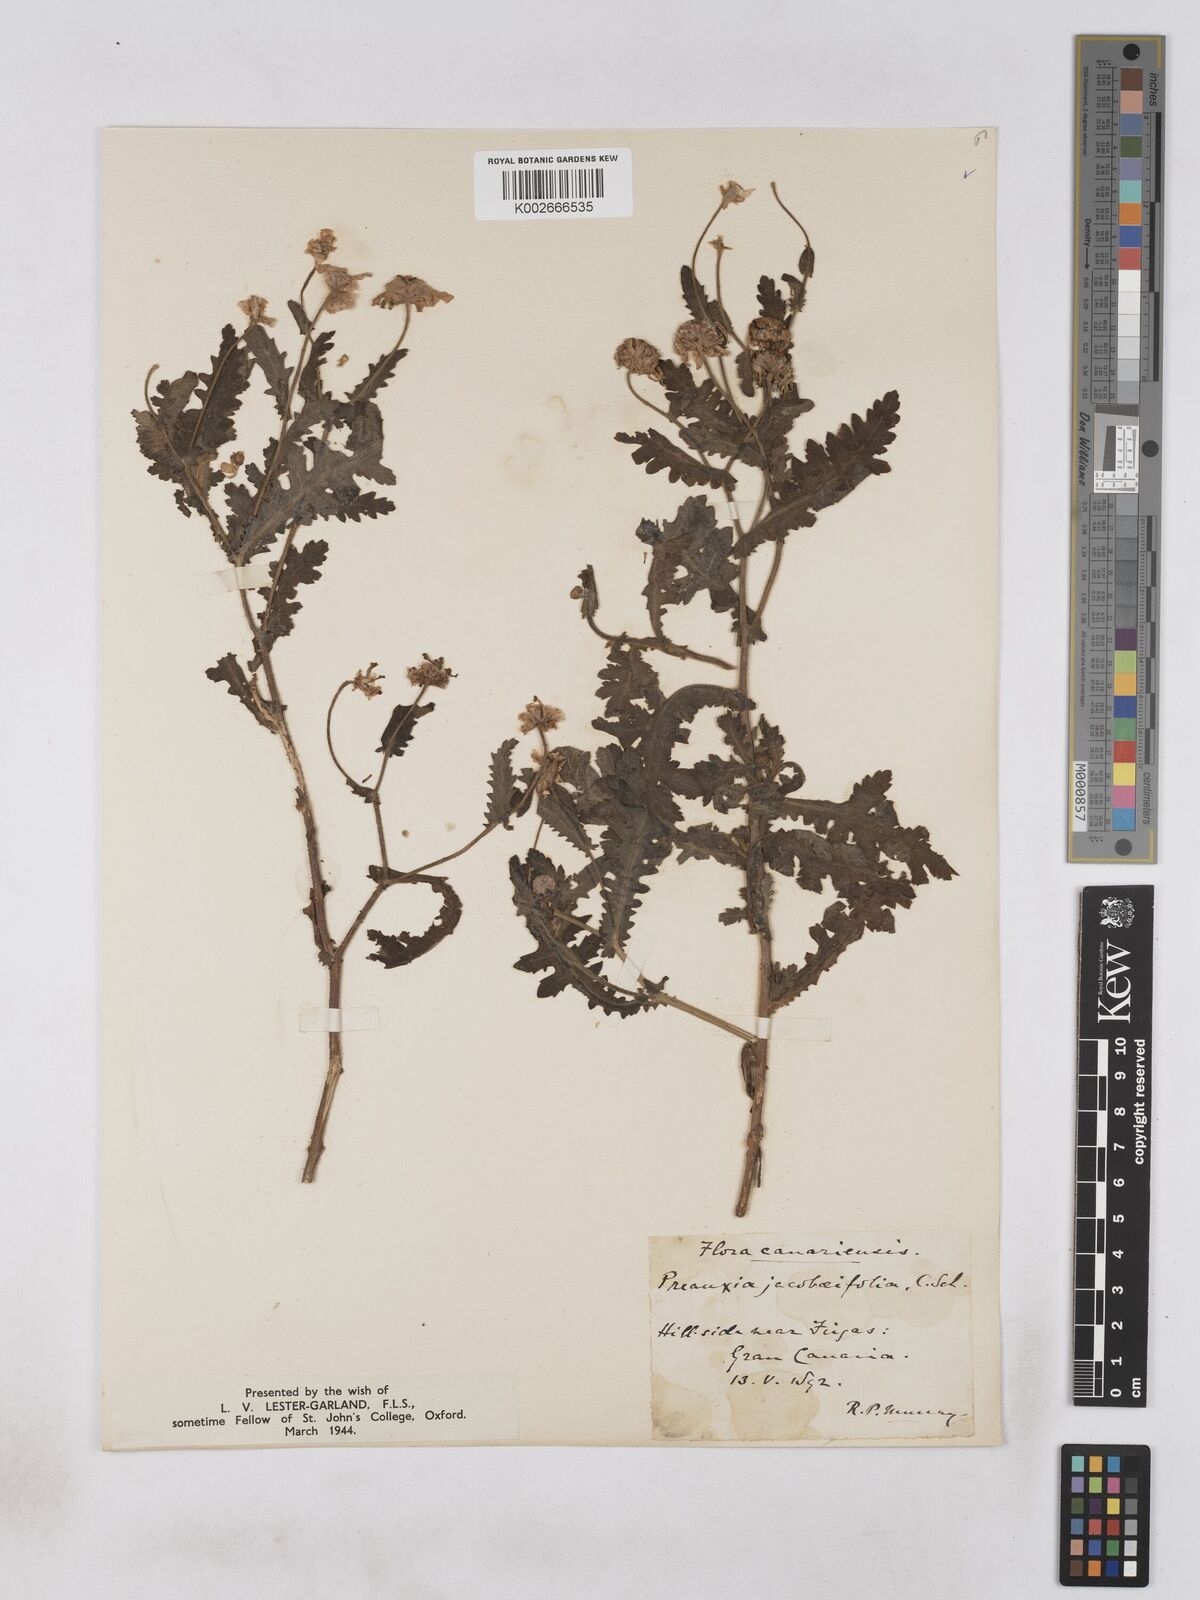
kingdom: Plantae
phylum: Tracheophyta
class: Magnoliopsida
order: Asterales
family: Asteraceae
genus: Argyranthemum
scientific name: Argyranthemum adauctum
